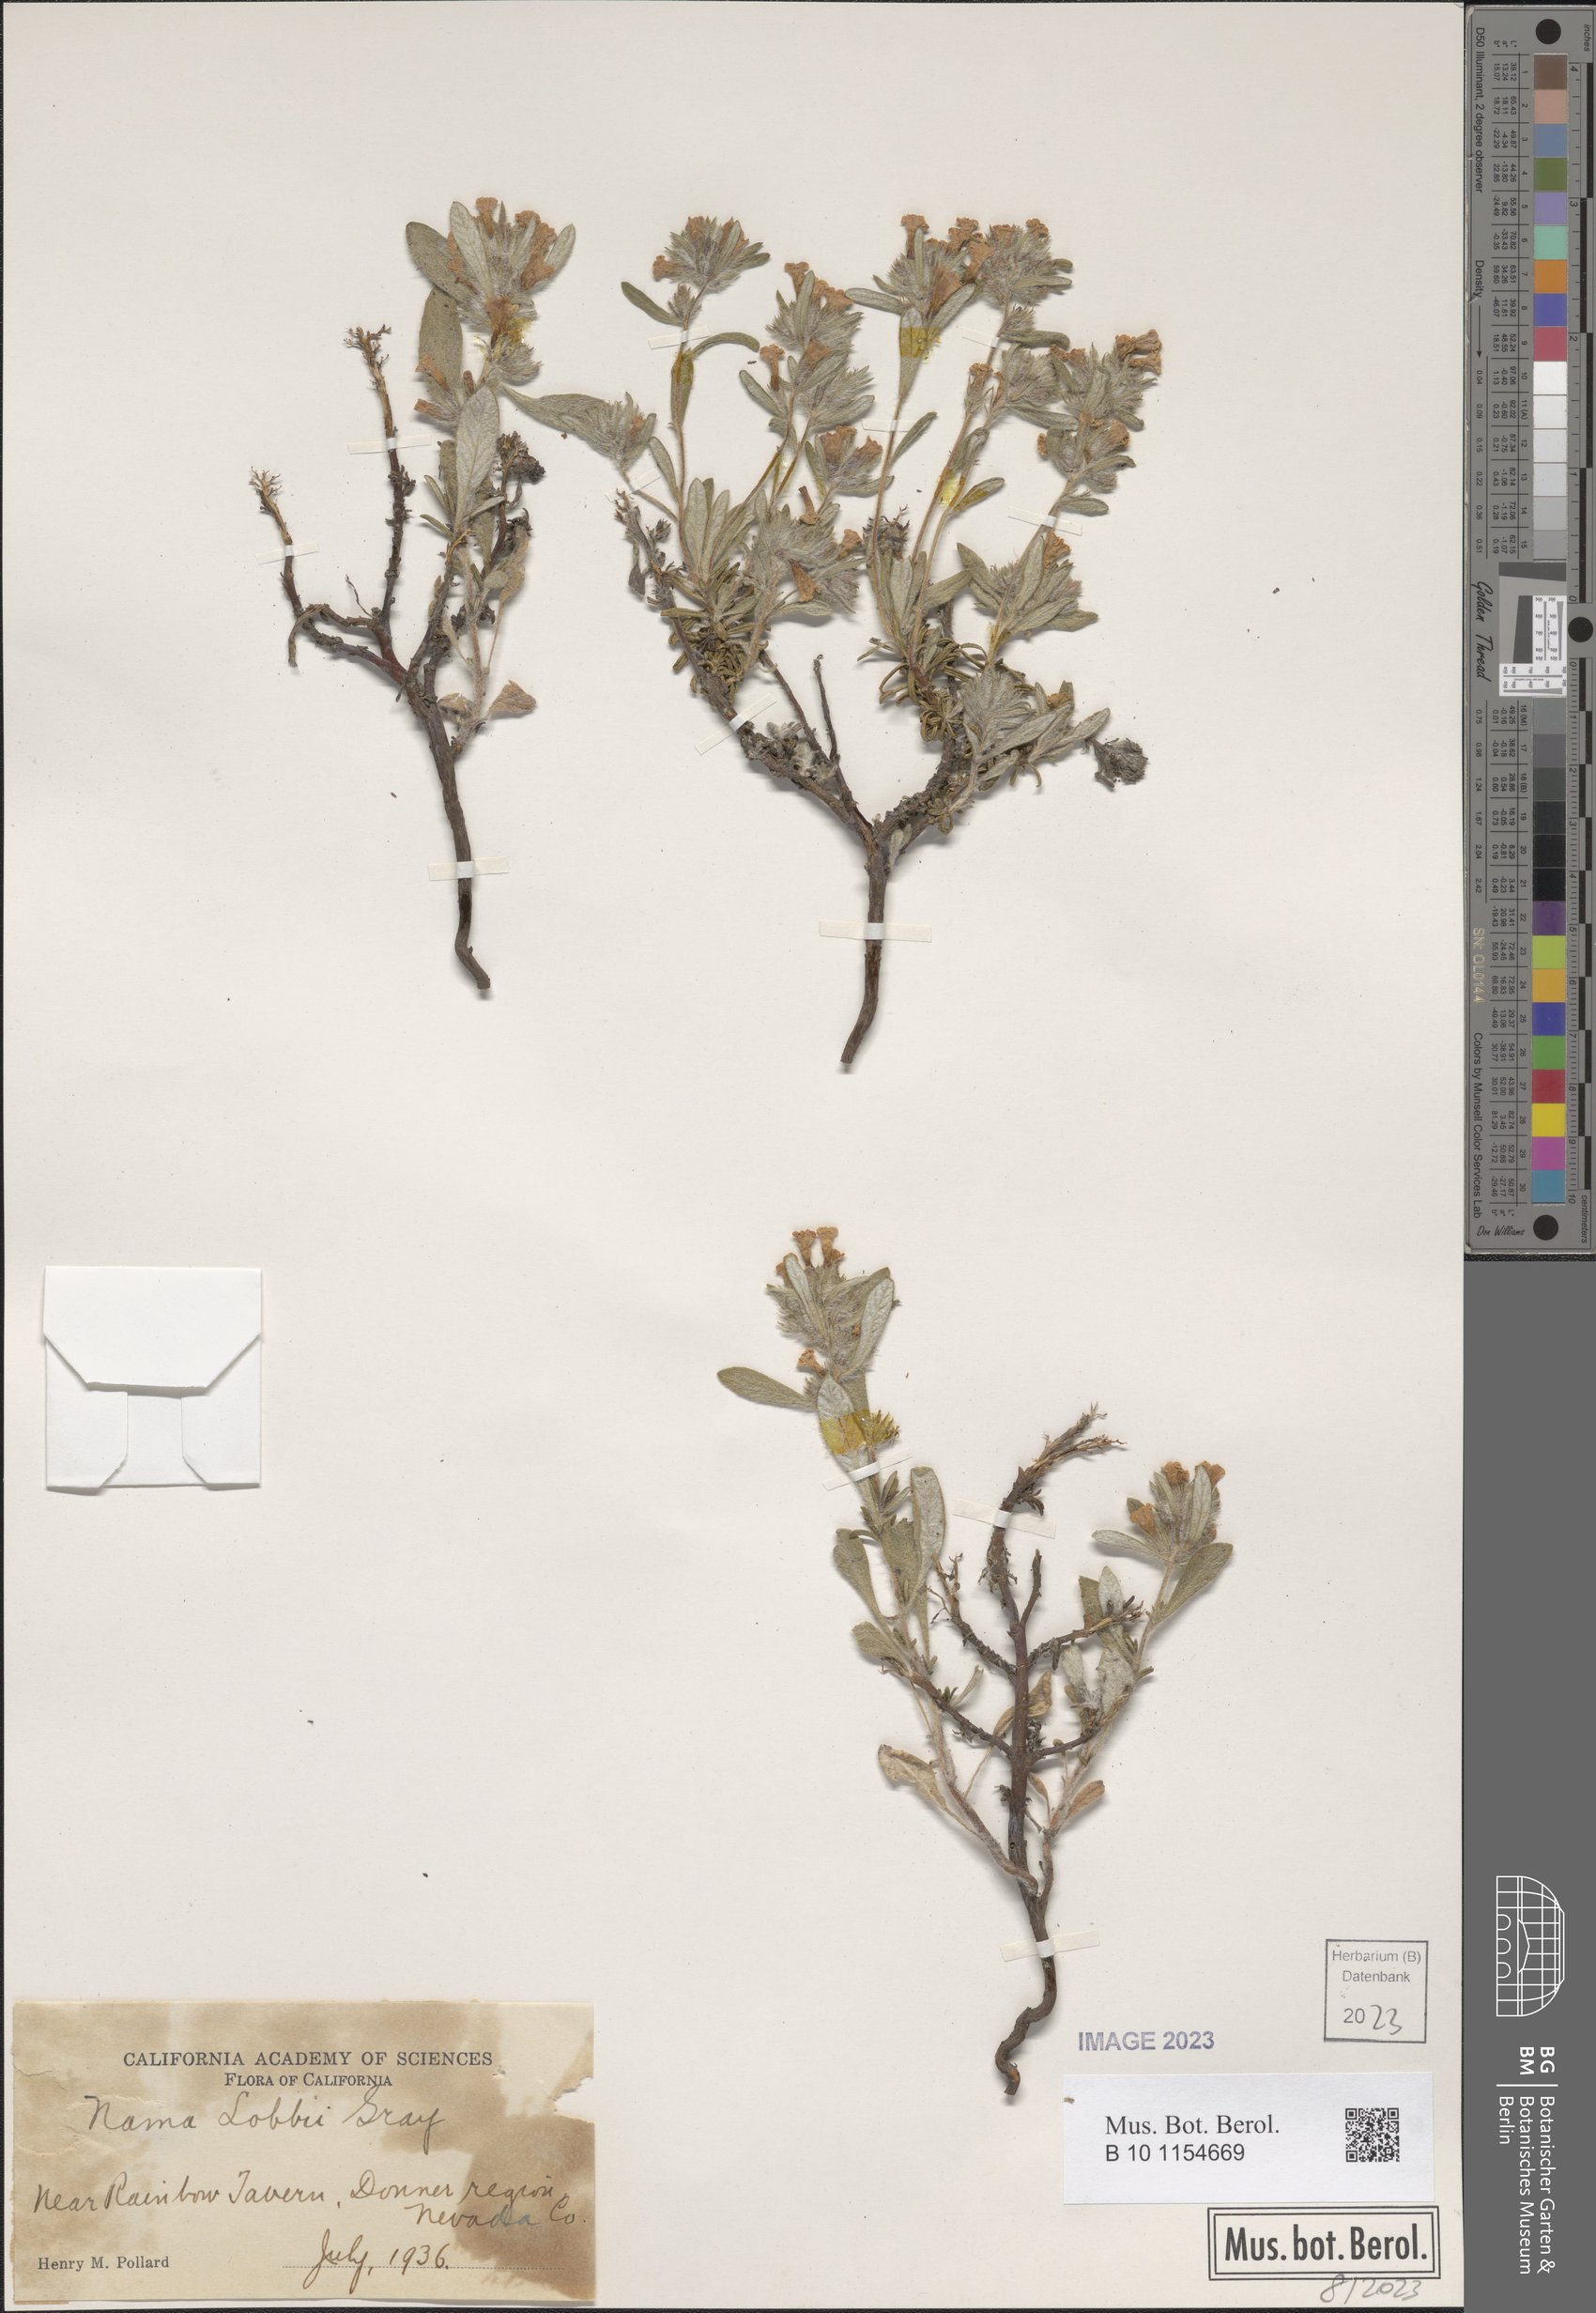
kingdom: Plantae
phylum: Tracheophyta
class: Magnoliopsida
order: Boraginales
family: Namaceae
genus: Nama
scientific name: Nama lobbii
